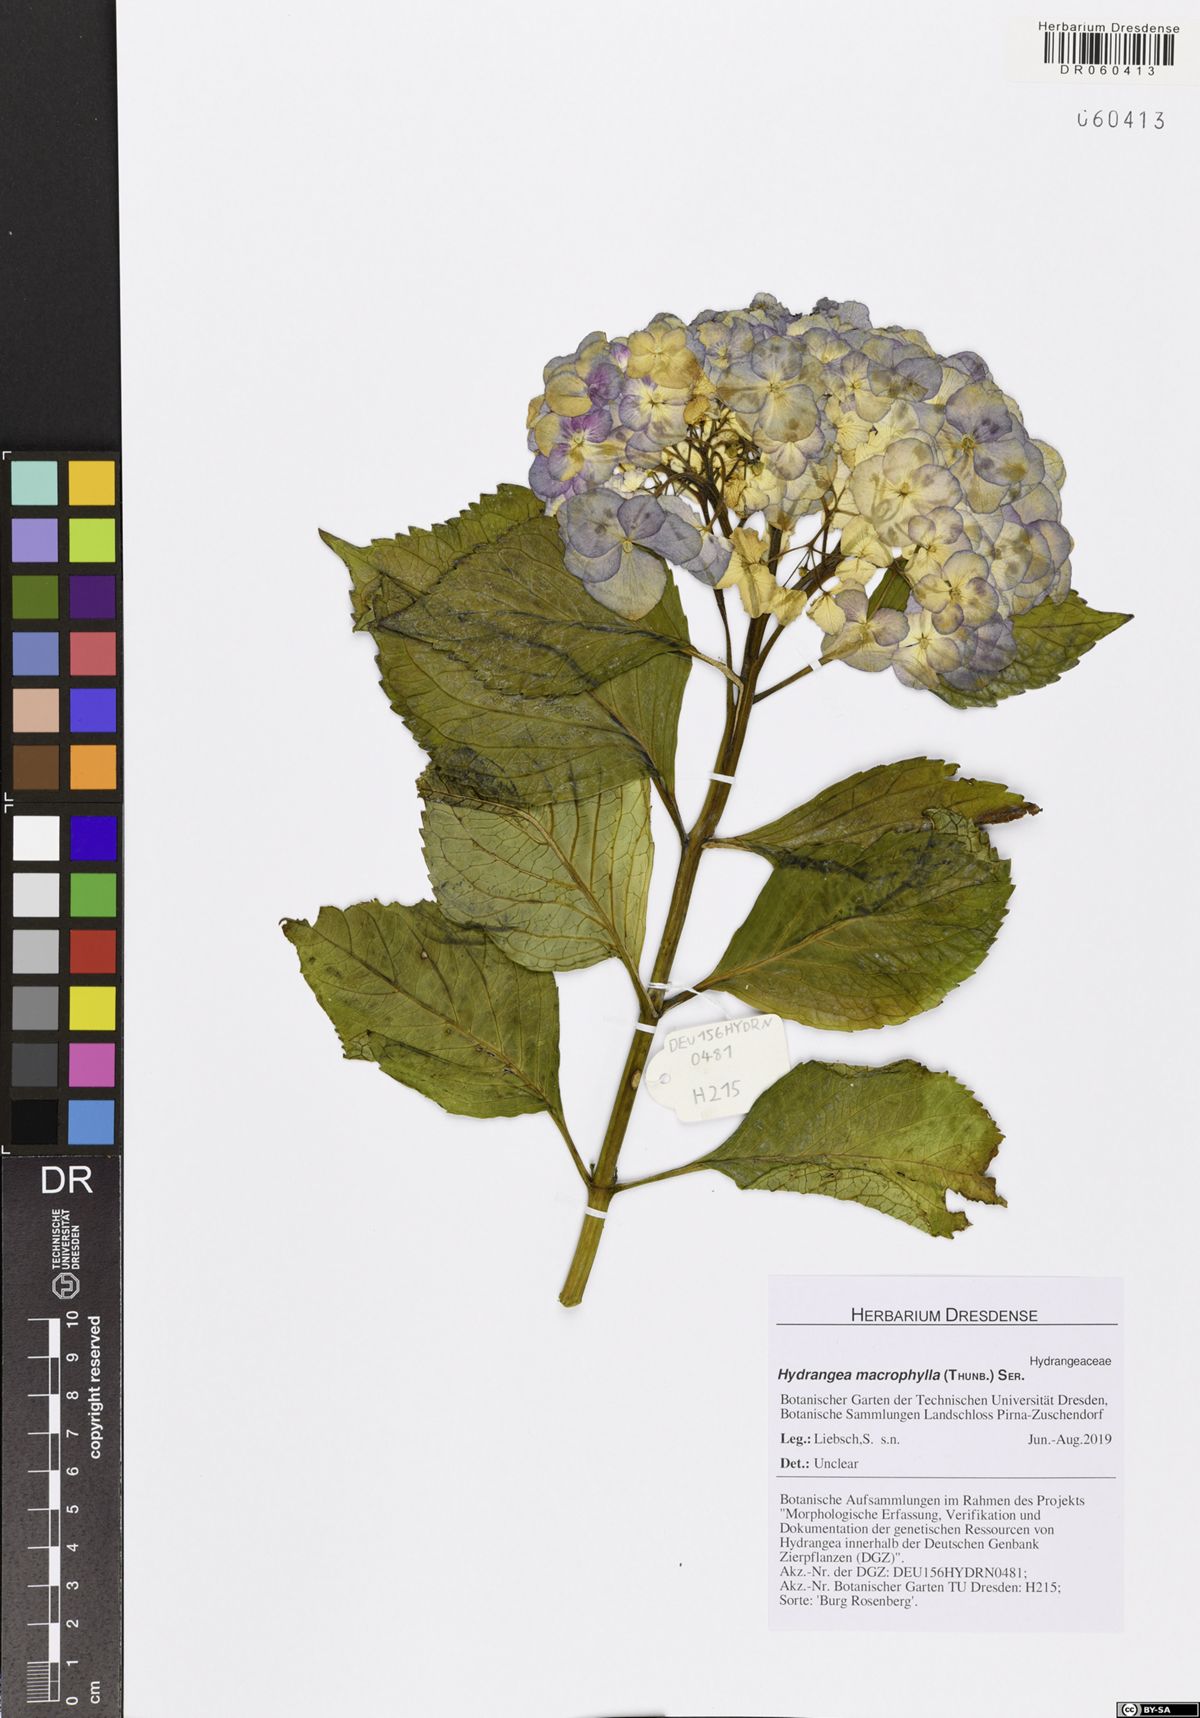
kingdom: Plantae
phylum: Tracheophyta
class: Magnoliopsida
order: Cornales
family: Hydrangeaceae
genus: Hydrangea
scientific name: Hydrangea macrophylla
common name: Hydrangea
